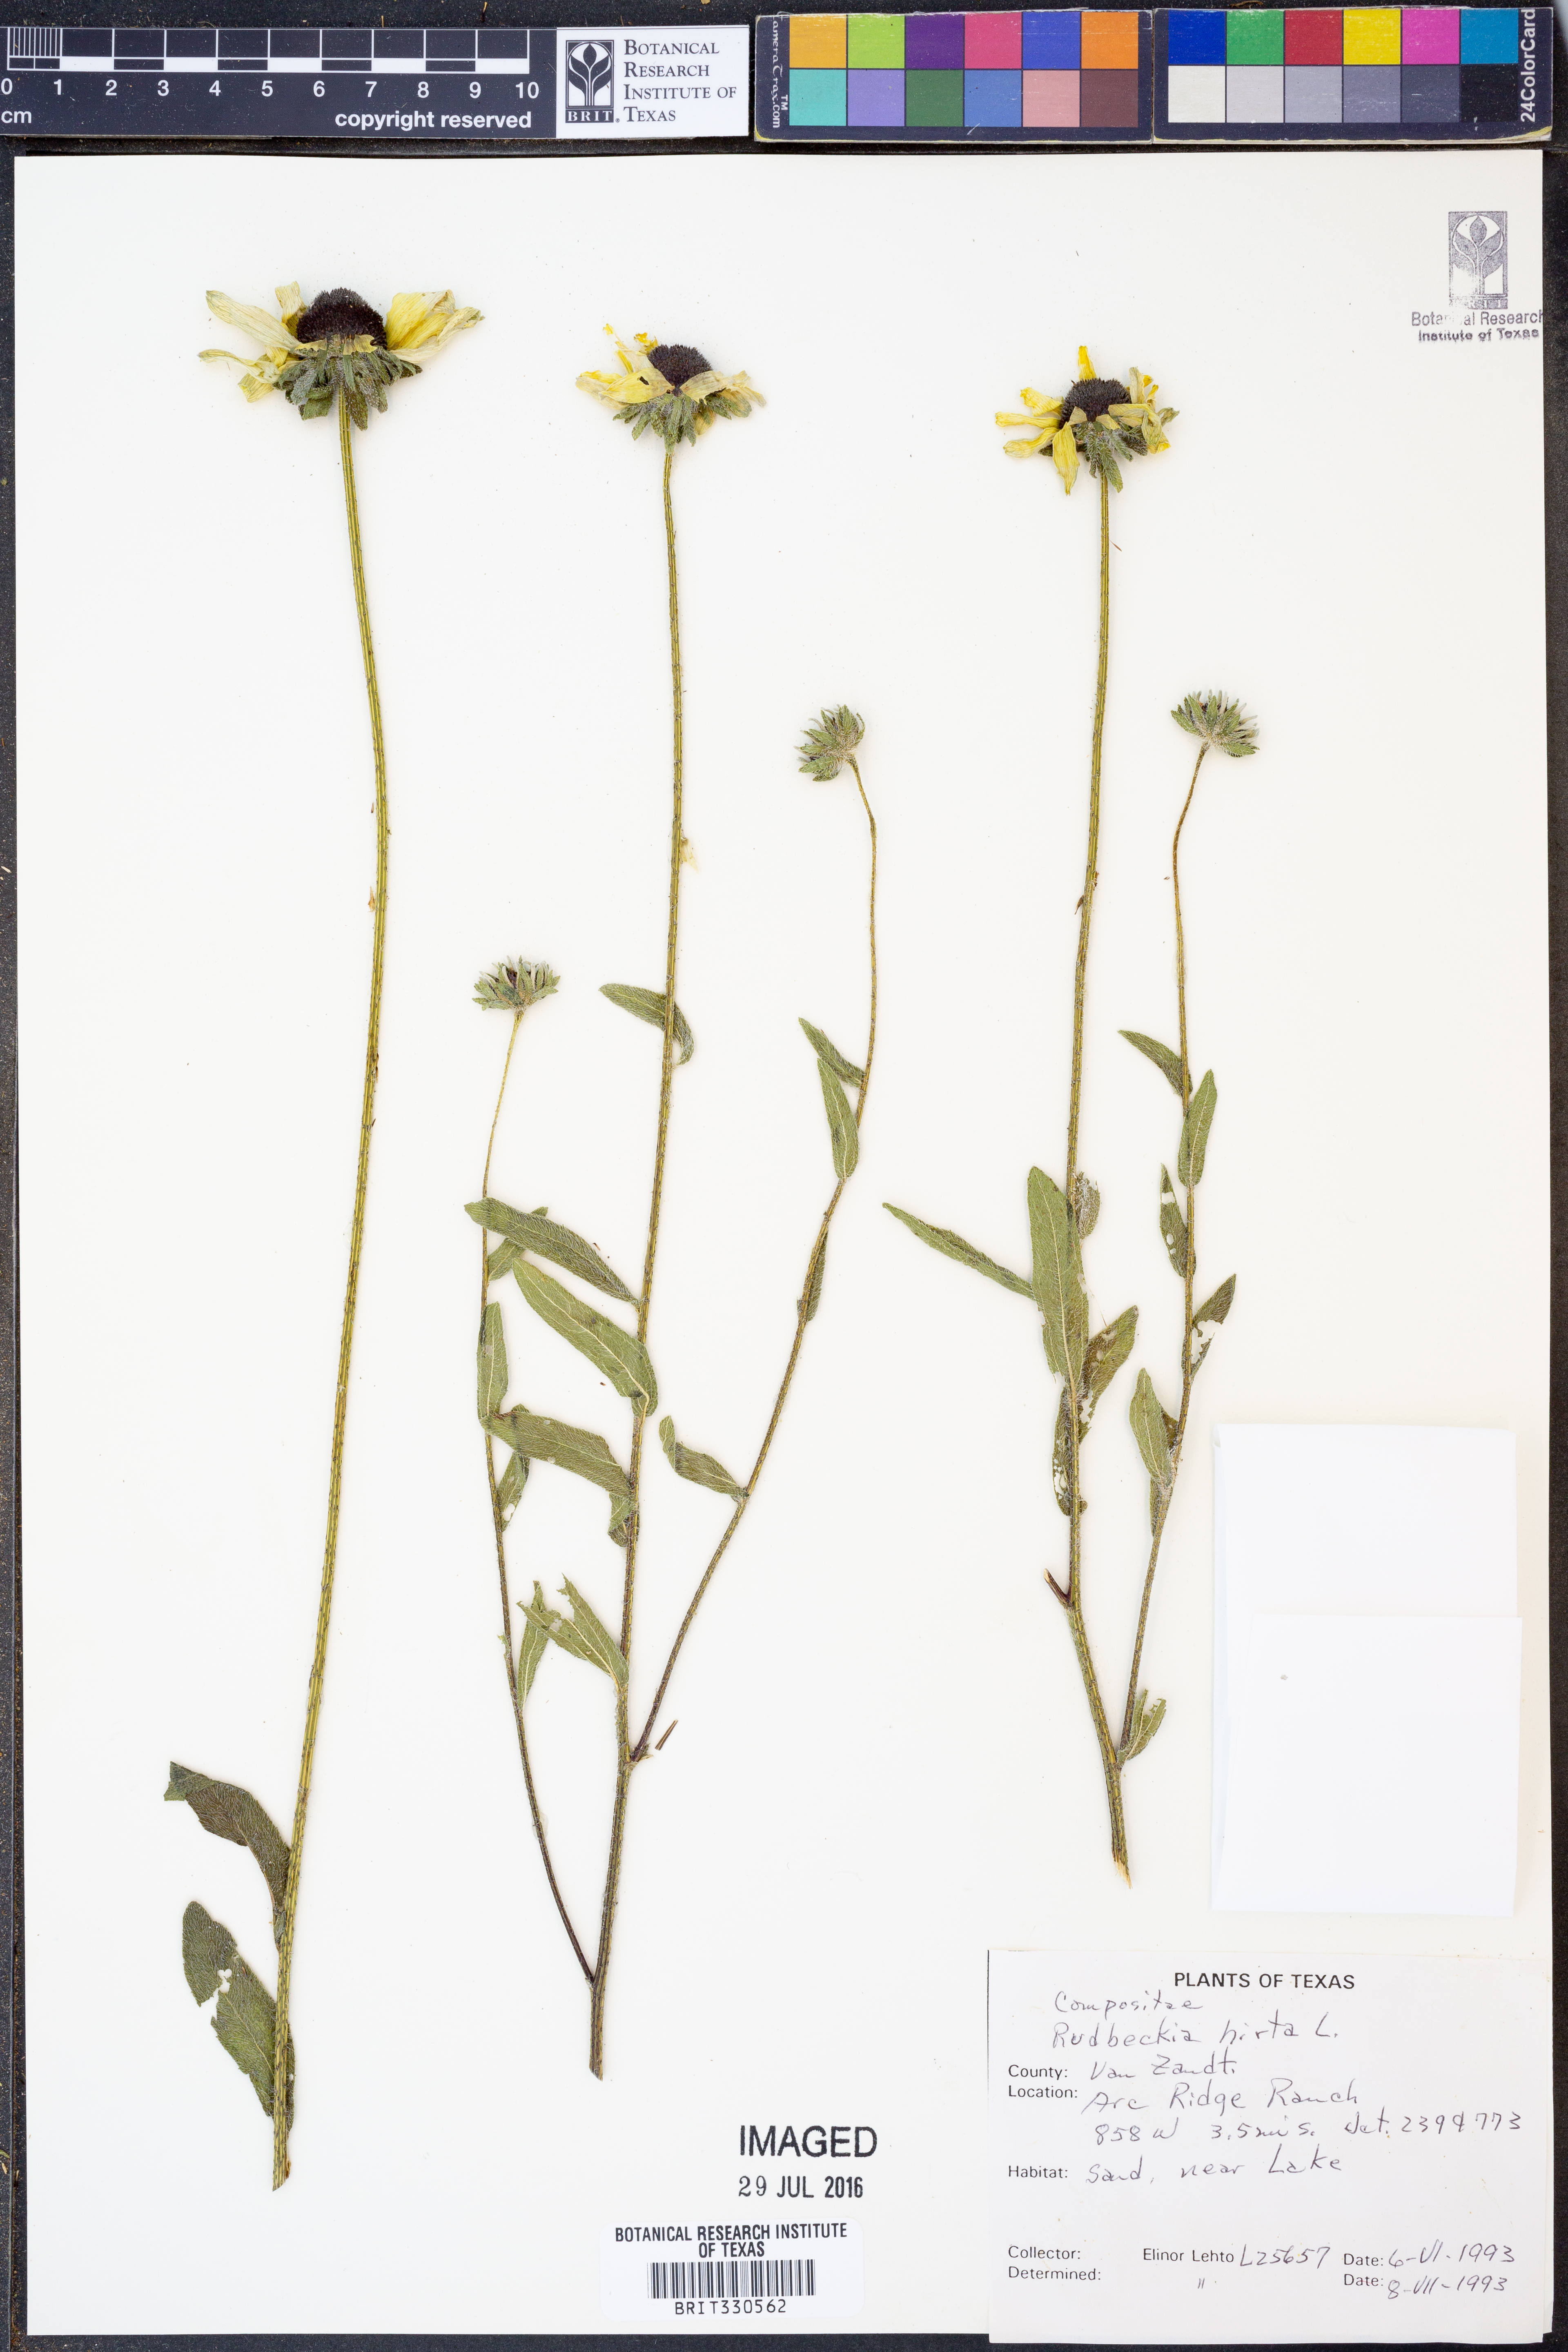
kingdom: Plantae
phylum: Tracheophyta
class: Magnoliopsida
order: Asterales
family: Asteraceae
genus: Rudbeckia
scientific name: Rudbeckia hirta
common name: Black-eyed-susan
